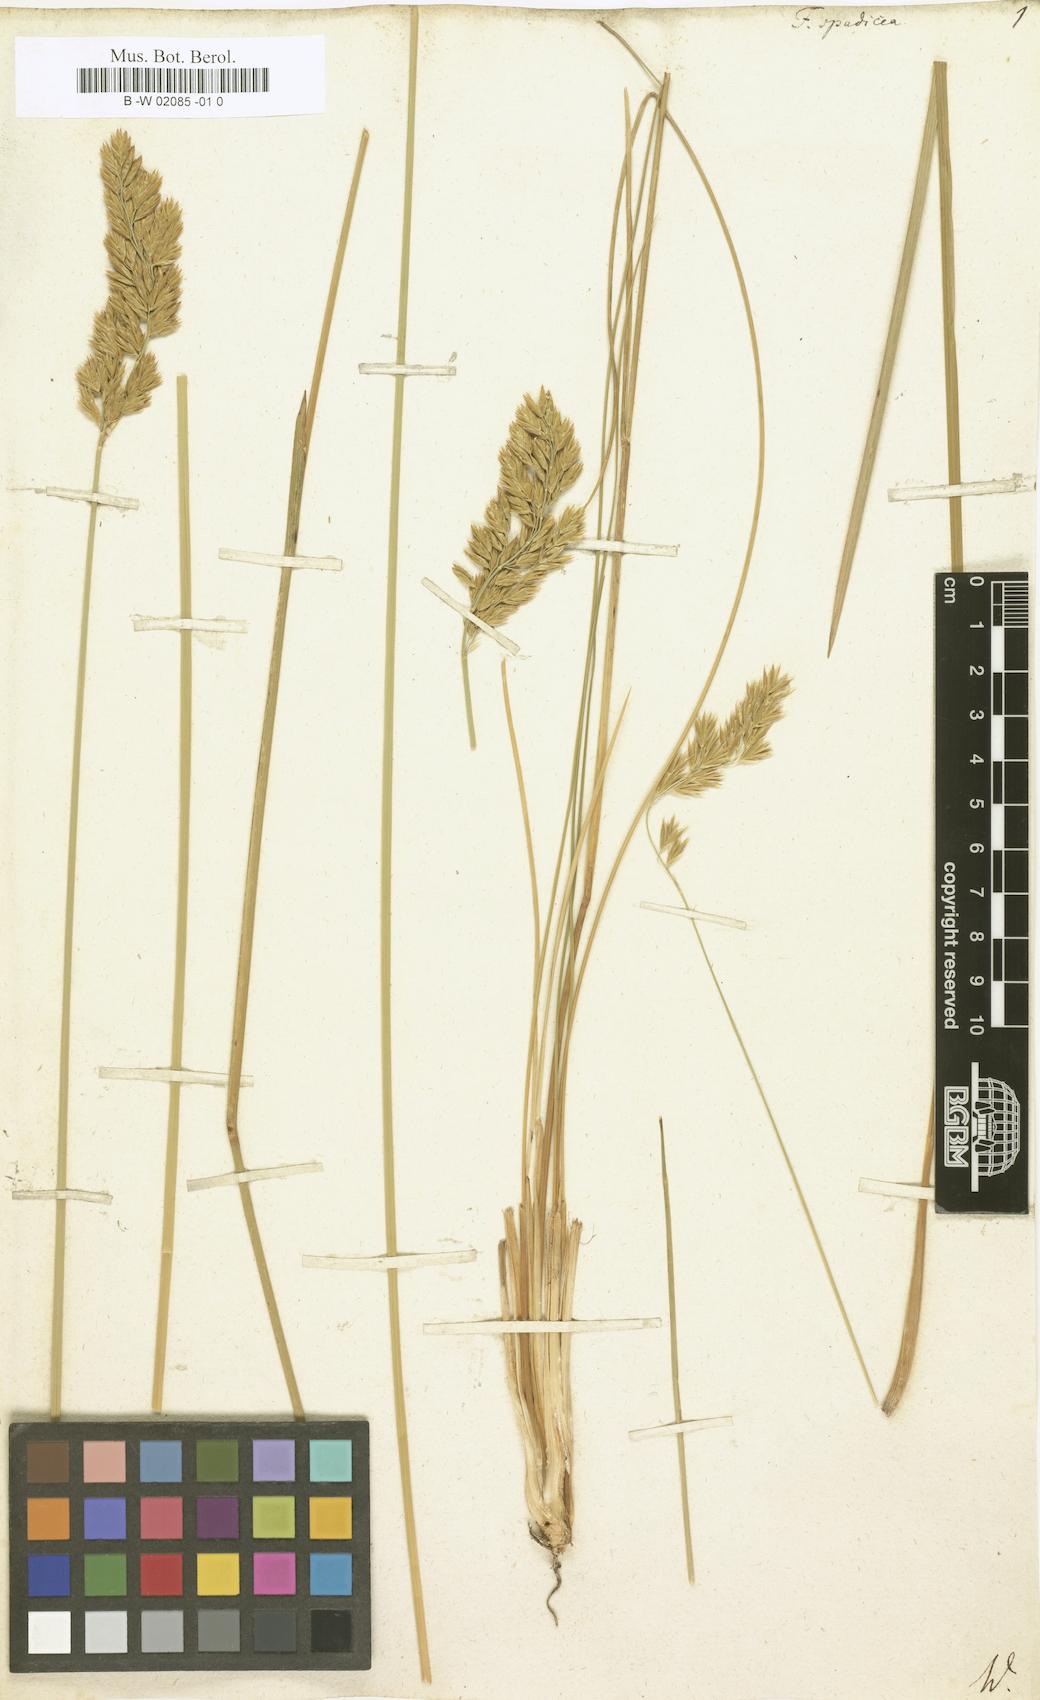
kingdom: Plantae
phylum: Tracheophyta
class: Liliopsida
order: Poales
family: Poaceae
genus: Festuca
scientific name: Festuca spadicea
